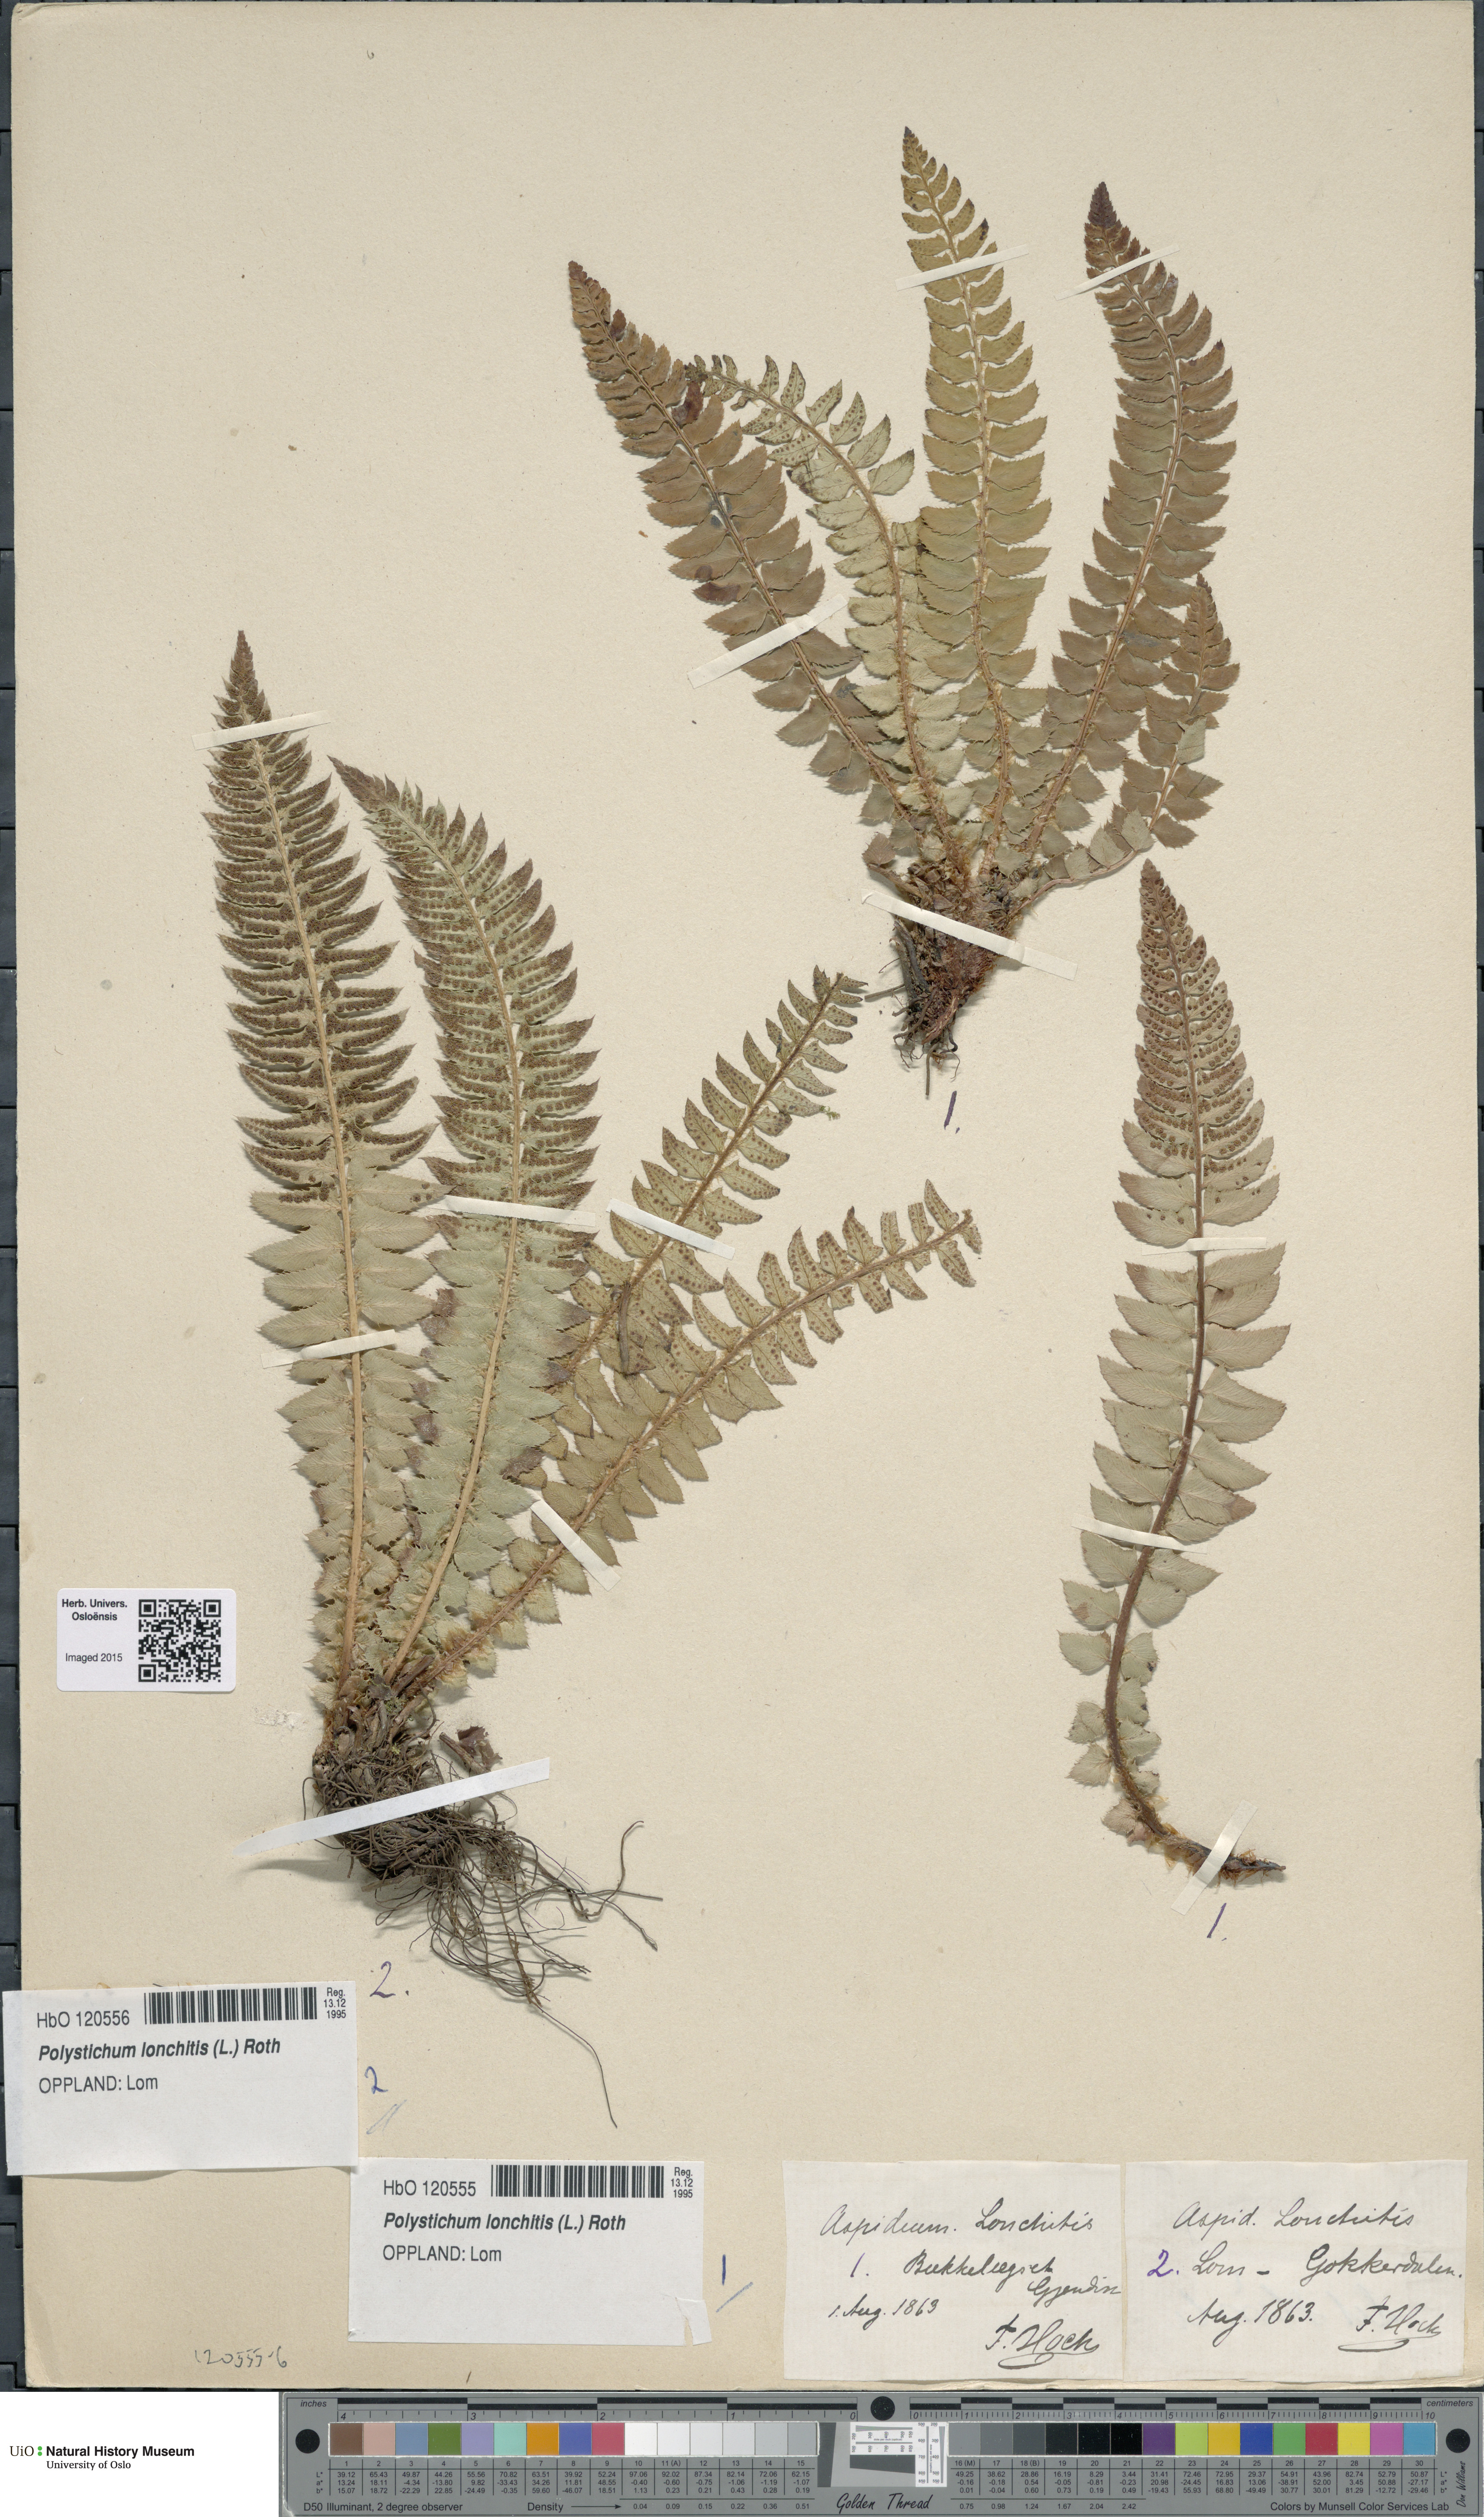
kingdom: Plantae
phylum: Tracheophyta
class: Polypodiopsida
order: Polypodiales
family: Dryopteridaceae
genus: Polystichum
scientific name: Polystichum lonchitis
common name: Holly fern
